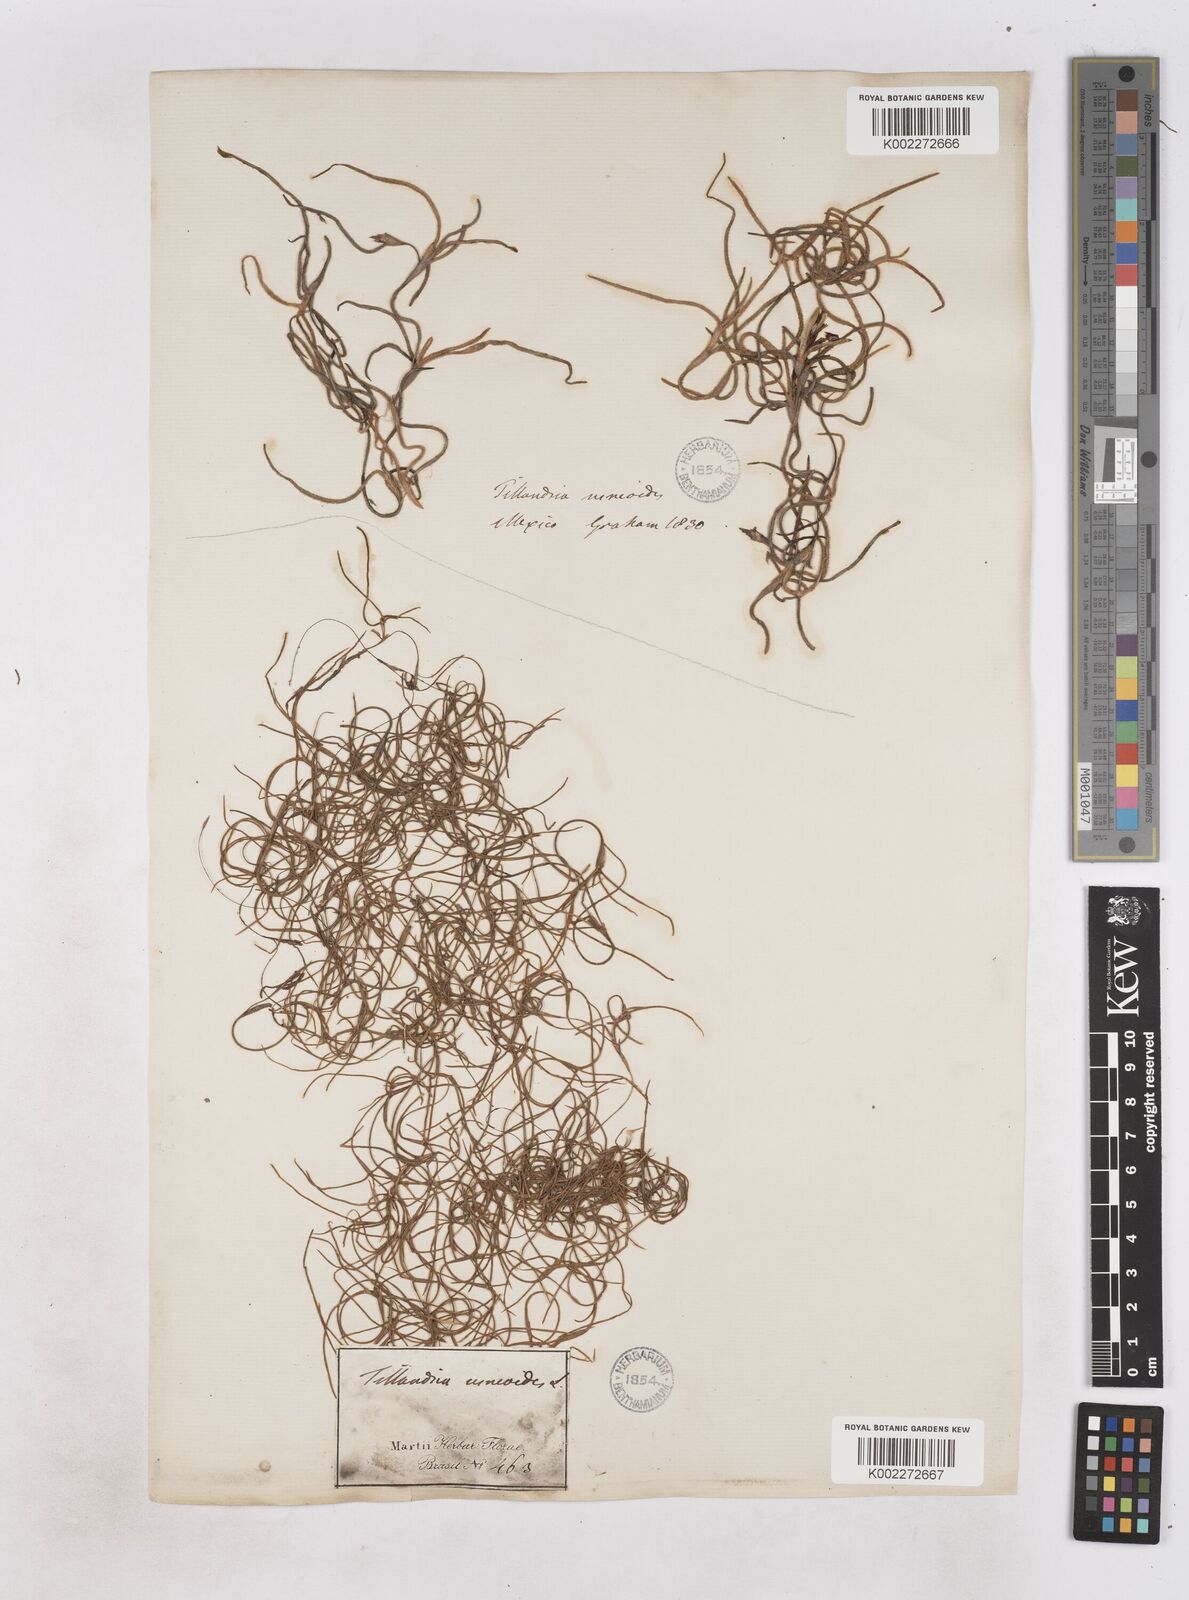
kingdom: Plantae
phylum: Tracheophyta
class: Liliopsida
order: Poales
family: Bromeliaceae
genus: Tillandsia
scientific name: Tillandsia usneoides
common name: Spanish moss
